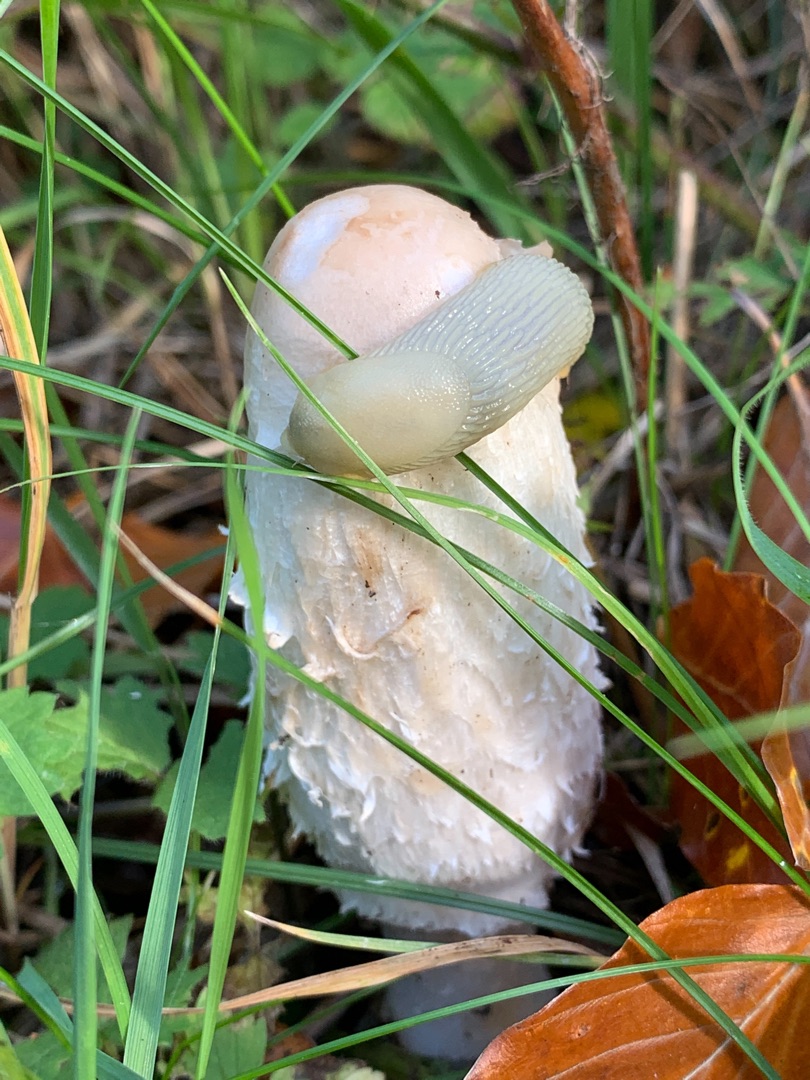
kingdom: Fungi
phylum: Basidiomycota
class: Agaricomycetes
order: Agaricales
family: Agaricaceae
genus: Coprinus
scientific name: Coprinus comatus
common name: Stor parykhat
